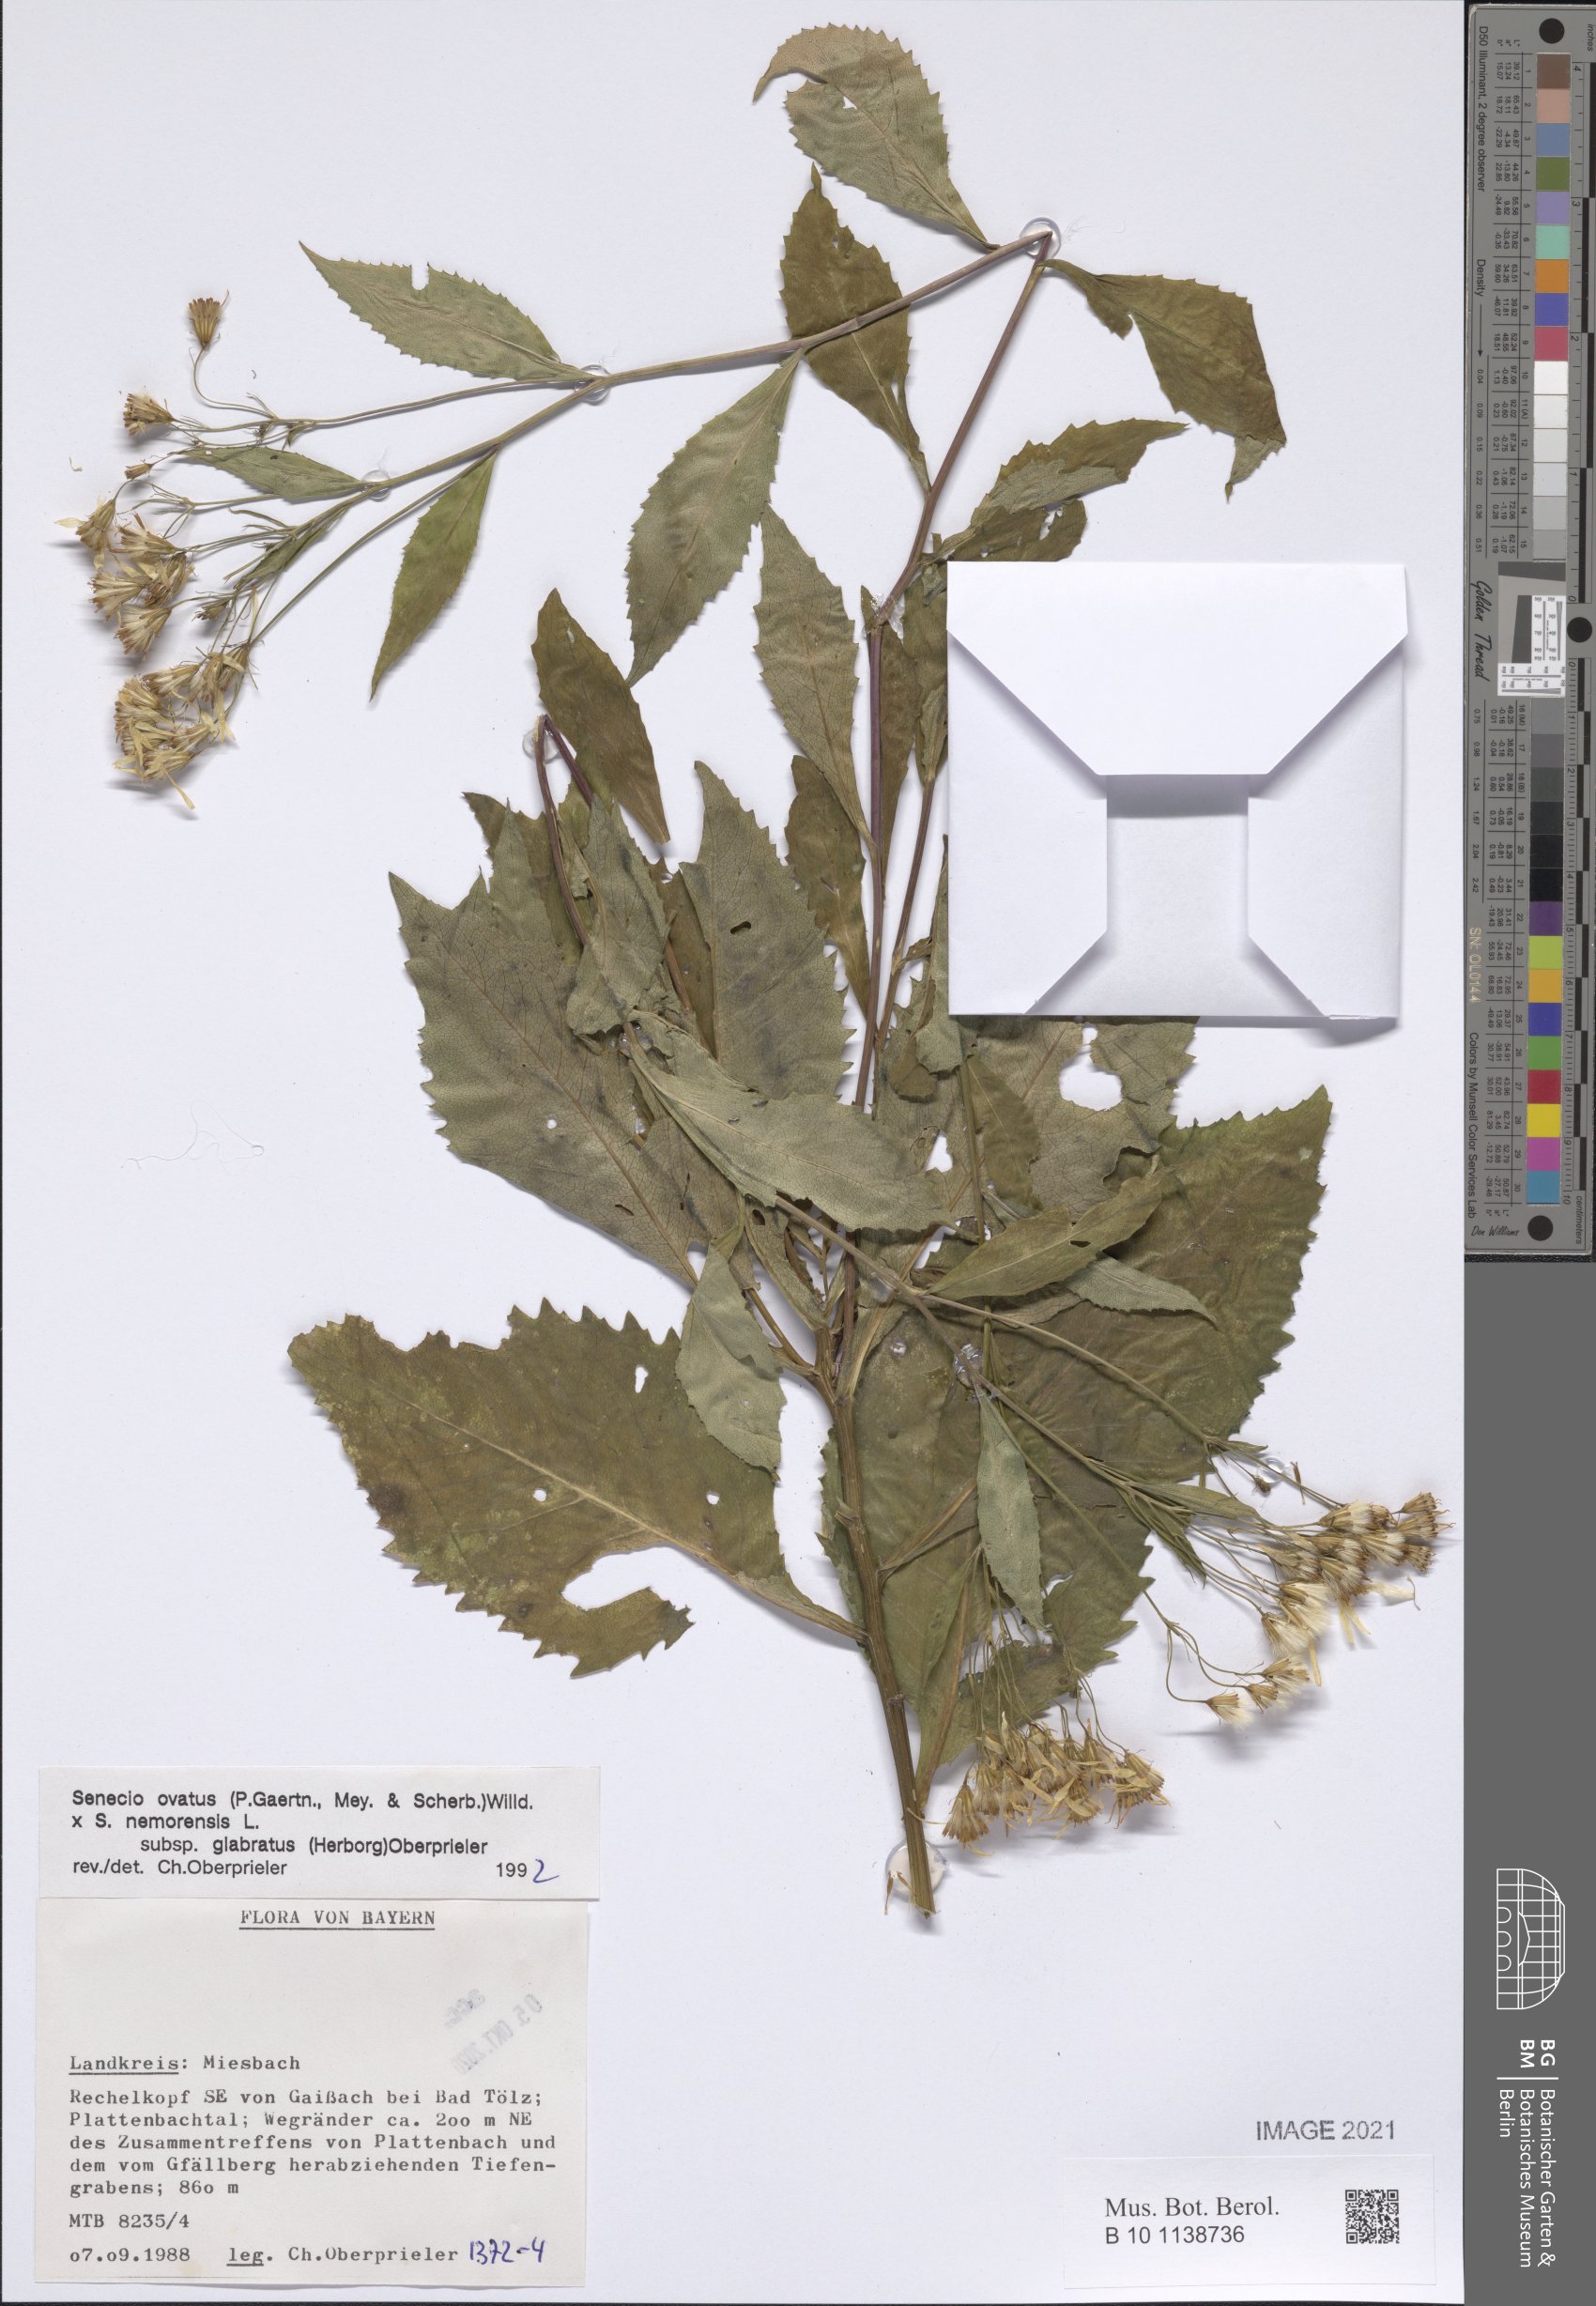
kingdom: Plantae
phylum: Tracheophyta
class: Magnoliopsida
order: Asterales
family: Asteraceae
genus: Senecio
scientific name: Senecio ovatus
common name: Wood ragwort
